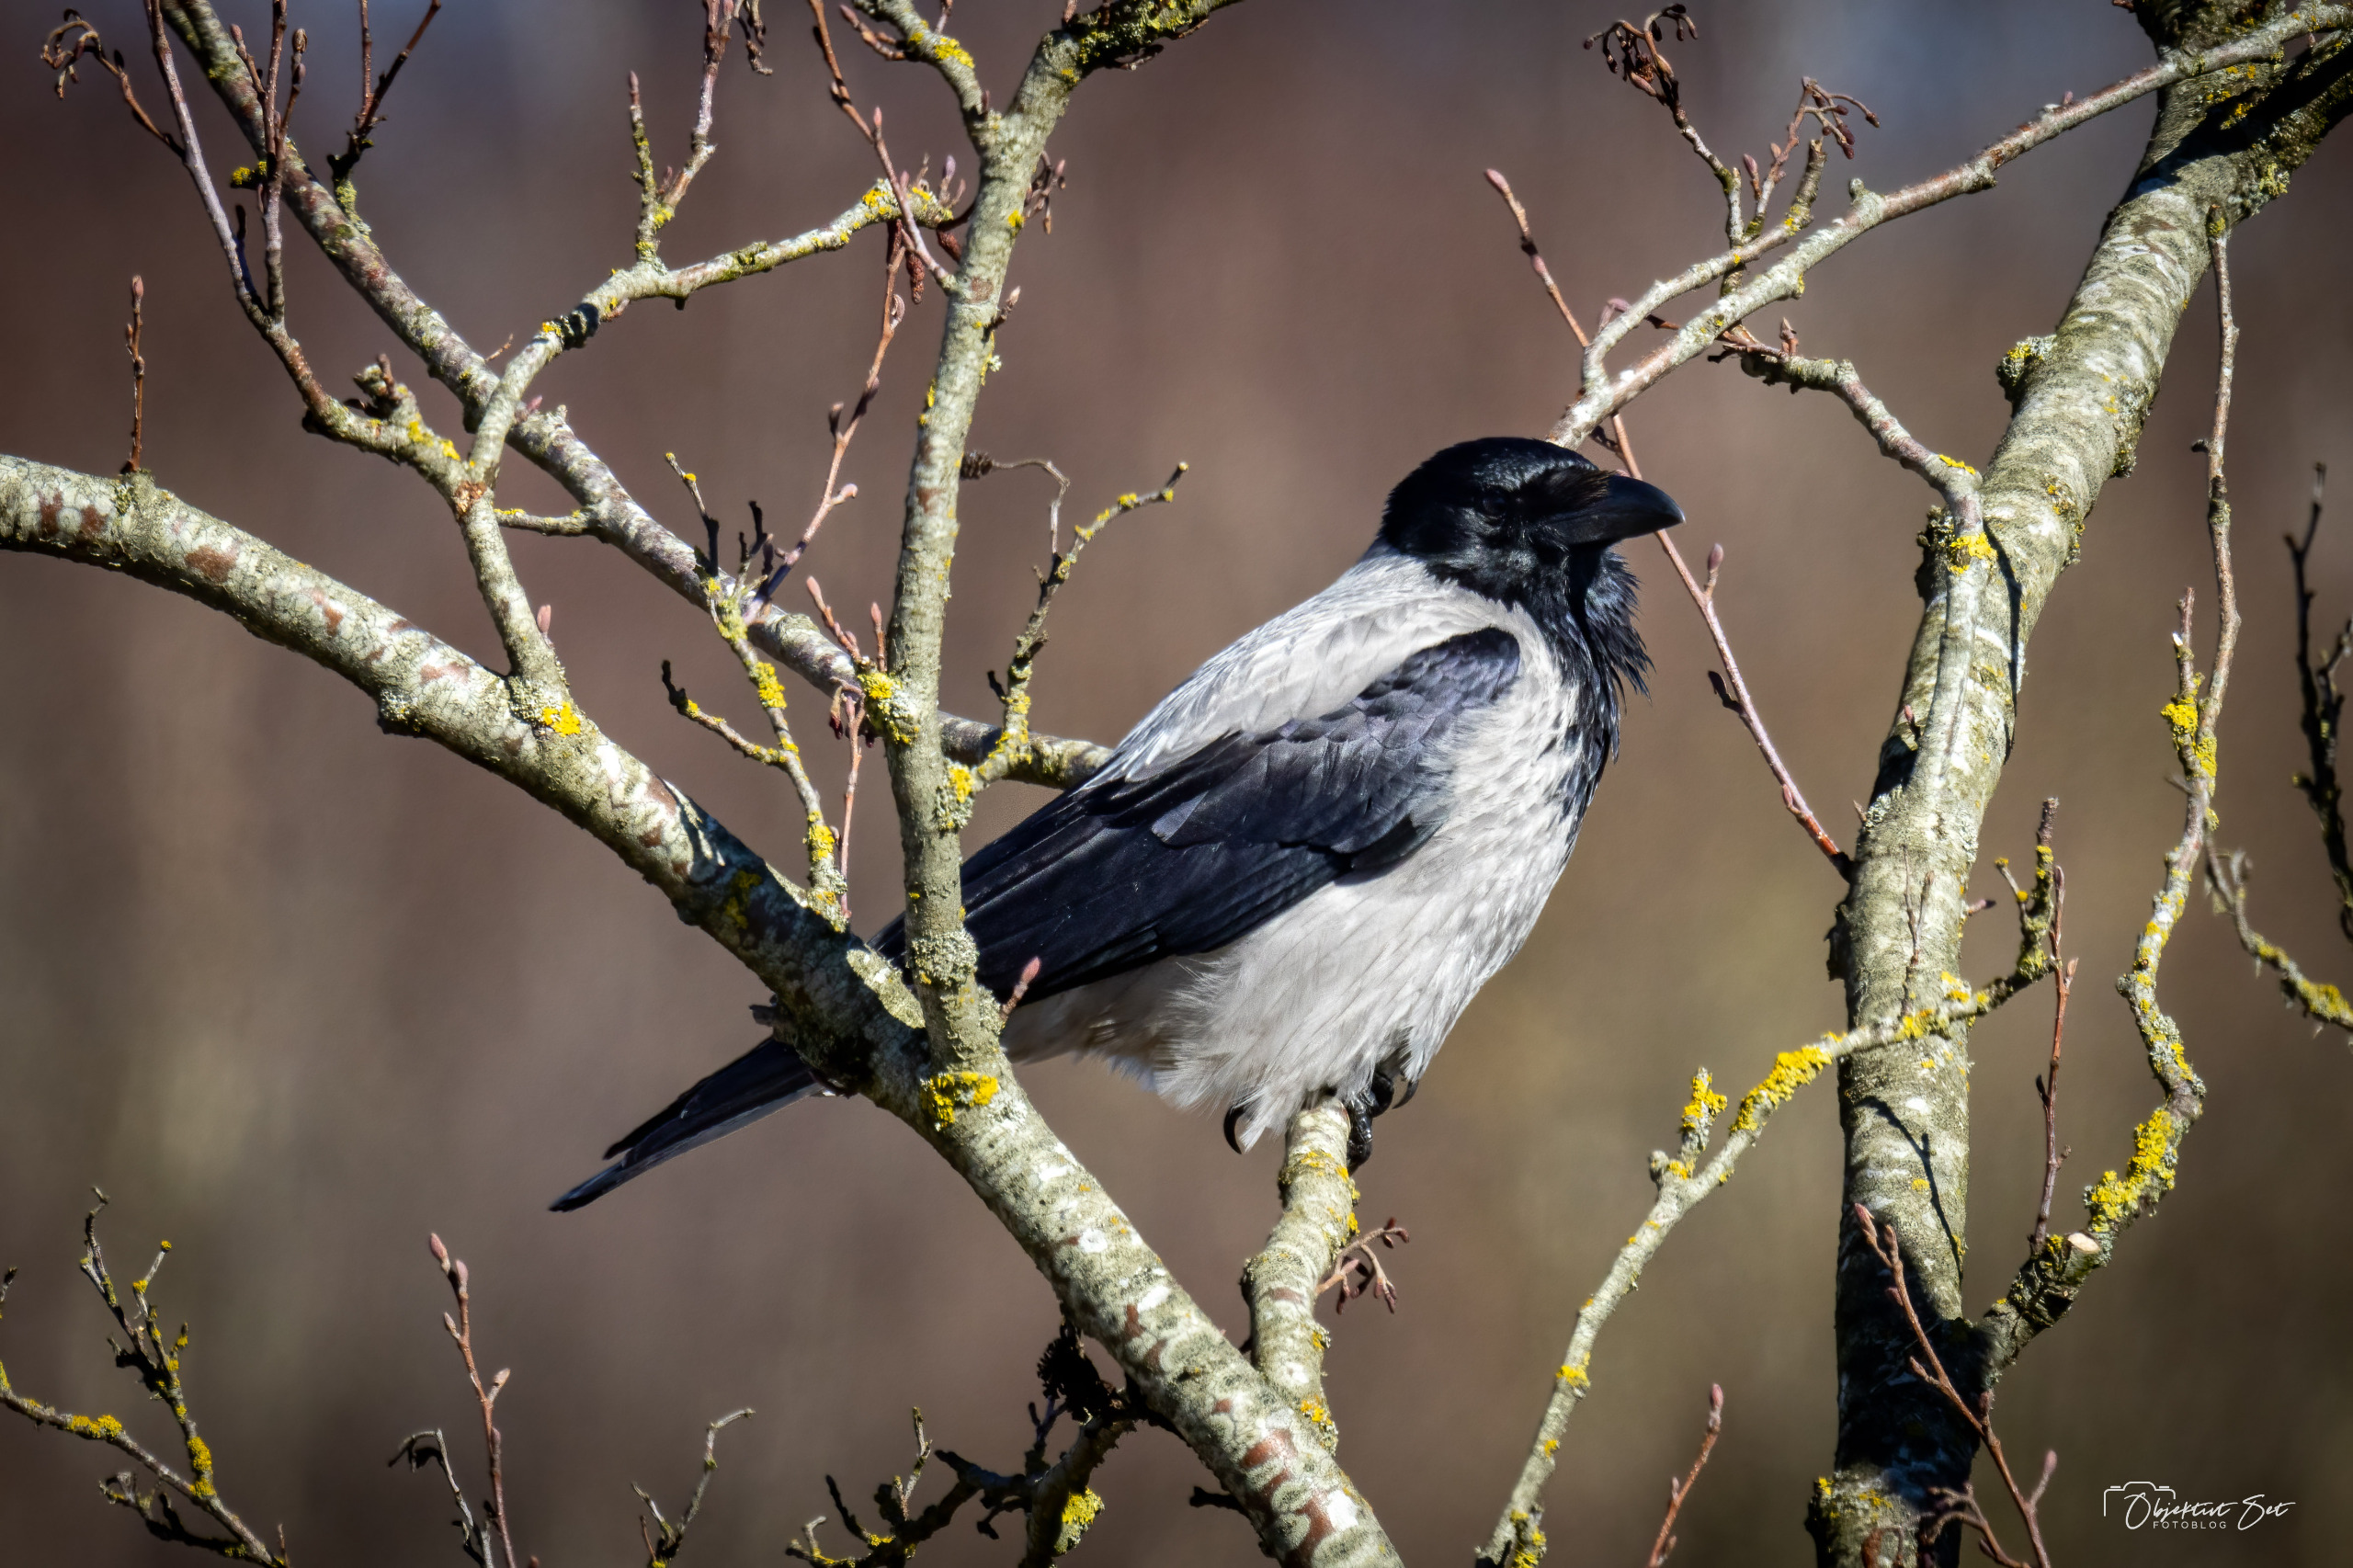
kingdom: Animalia
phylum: Chordata
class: Aves
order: Passeriformes
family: Corvidae
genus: Corvus
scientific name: Corvus cornix
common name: Gråkrage
